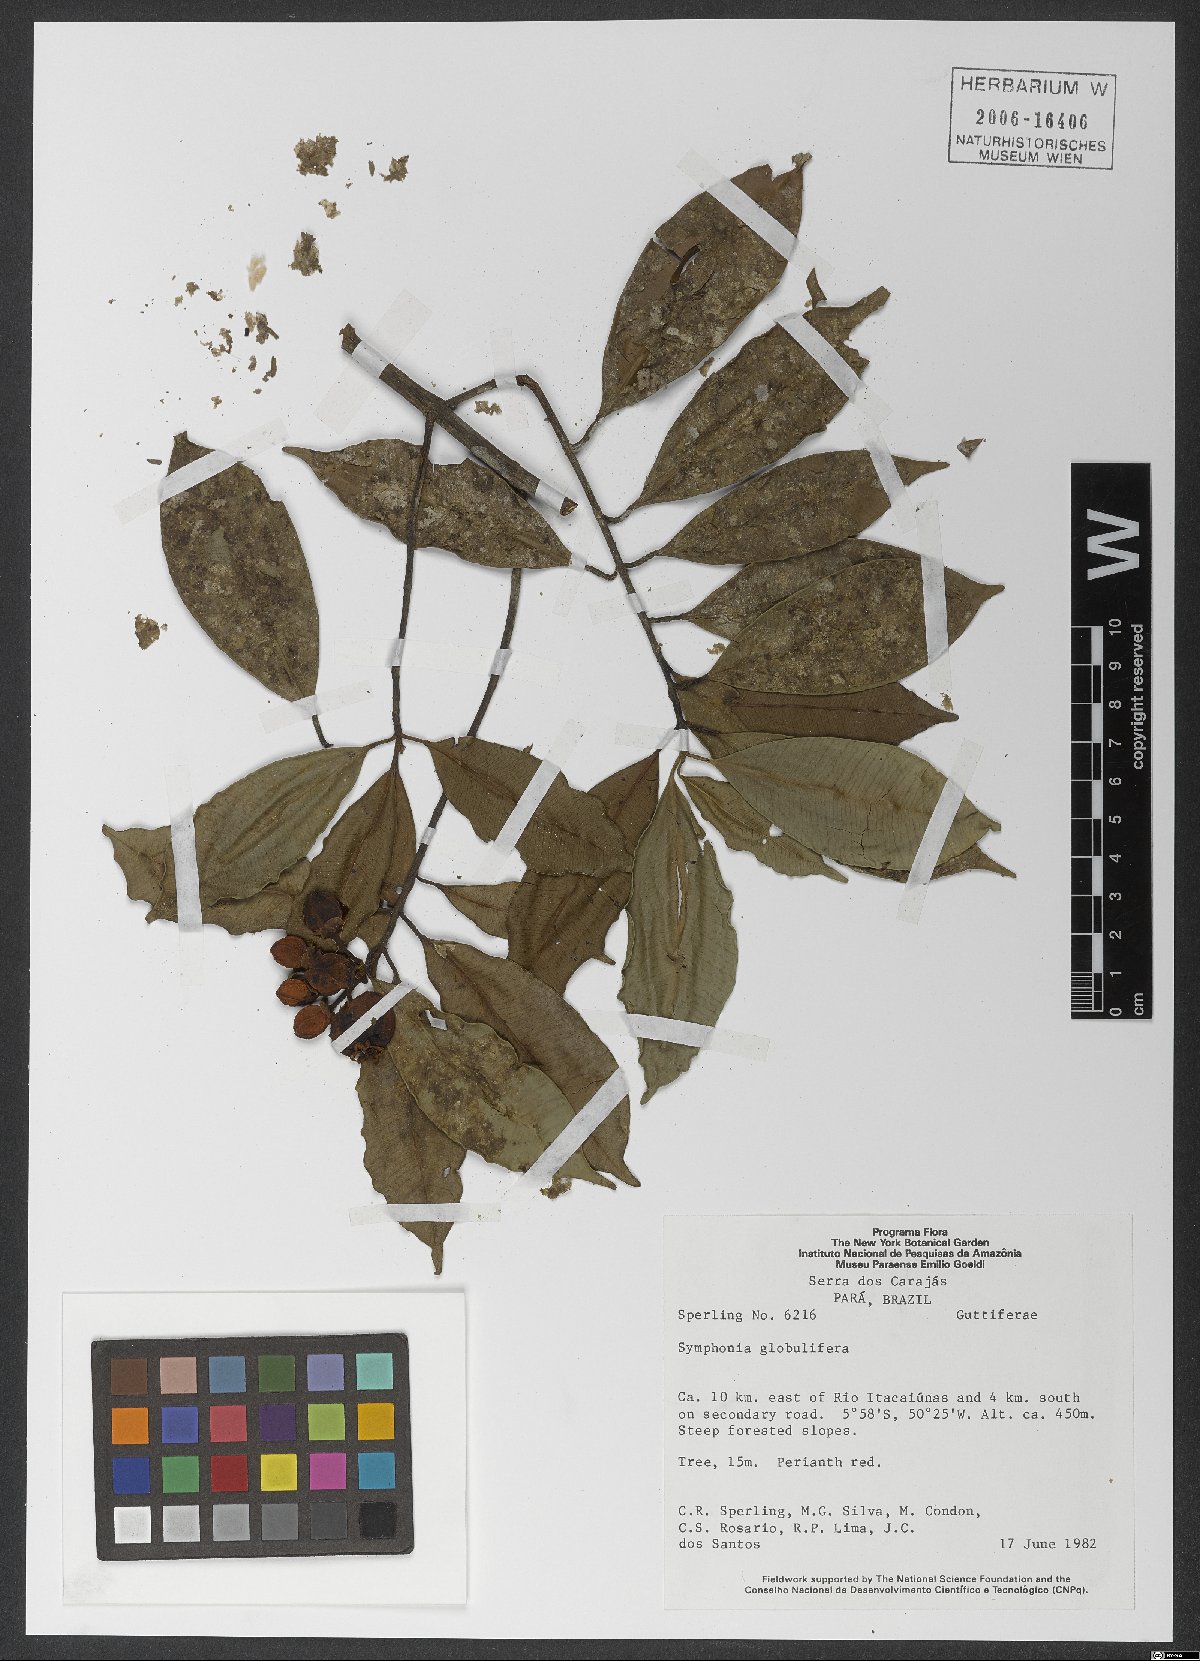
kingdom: Plantae
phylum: Tracheophyta
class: Magnoliopsida
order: Malpighiales
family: Clusiaceae
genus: Symphonia
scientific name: Symphonia globulifera
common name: Boarwood
